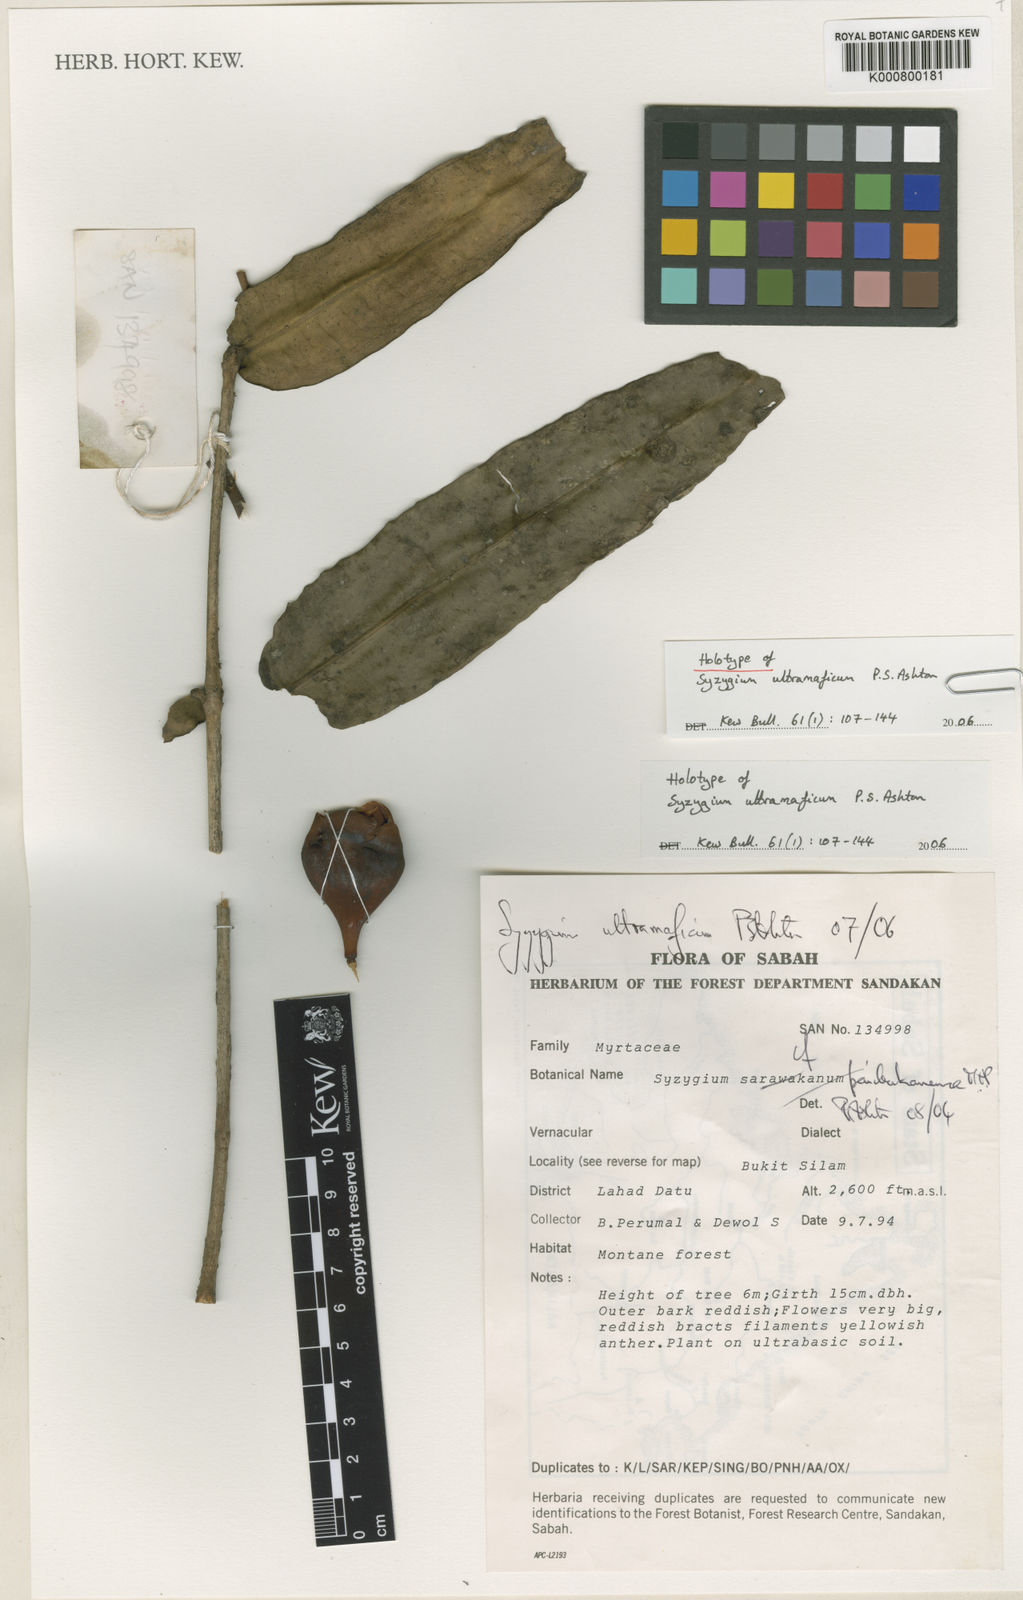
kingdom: Plantae
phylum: Tracheophyta
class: Magnoliopsida
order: Myrtales
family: Myrtaceae
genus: Syzygium
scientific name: Syzygium ultramaficum
